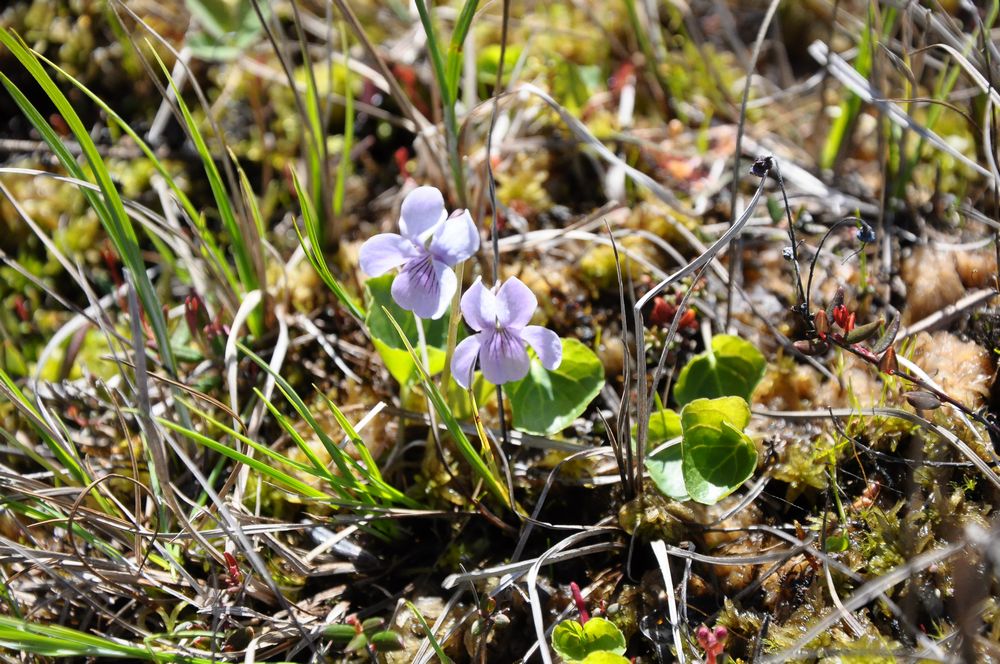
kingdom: Plantae
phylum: Tracheophyta
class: Magnoliopsida
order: Malpighiales
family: Violaceae
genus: Viola
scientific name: Viola epipsila
